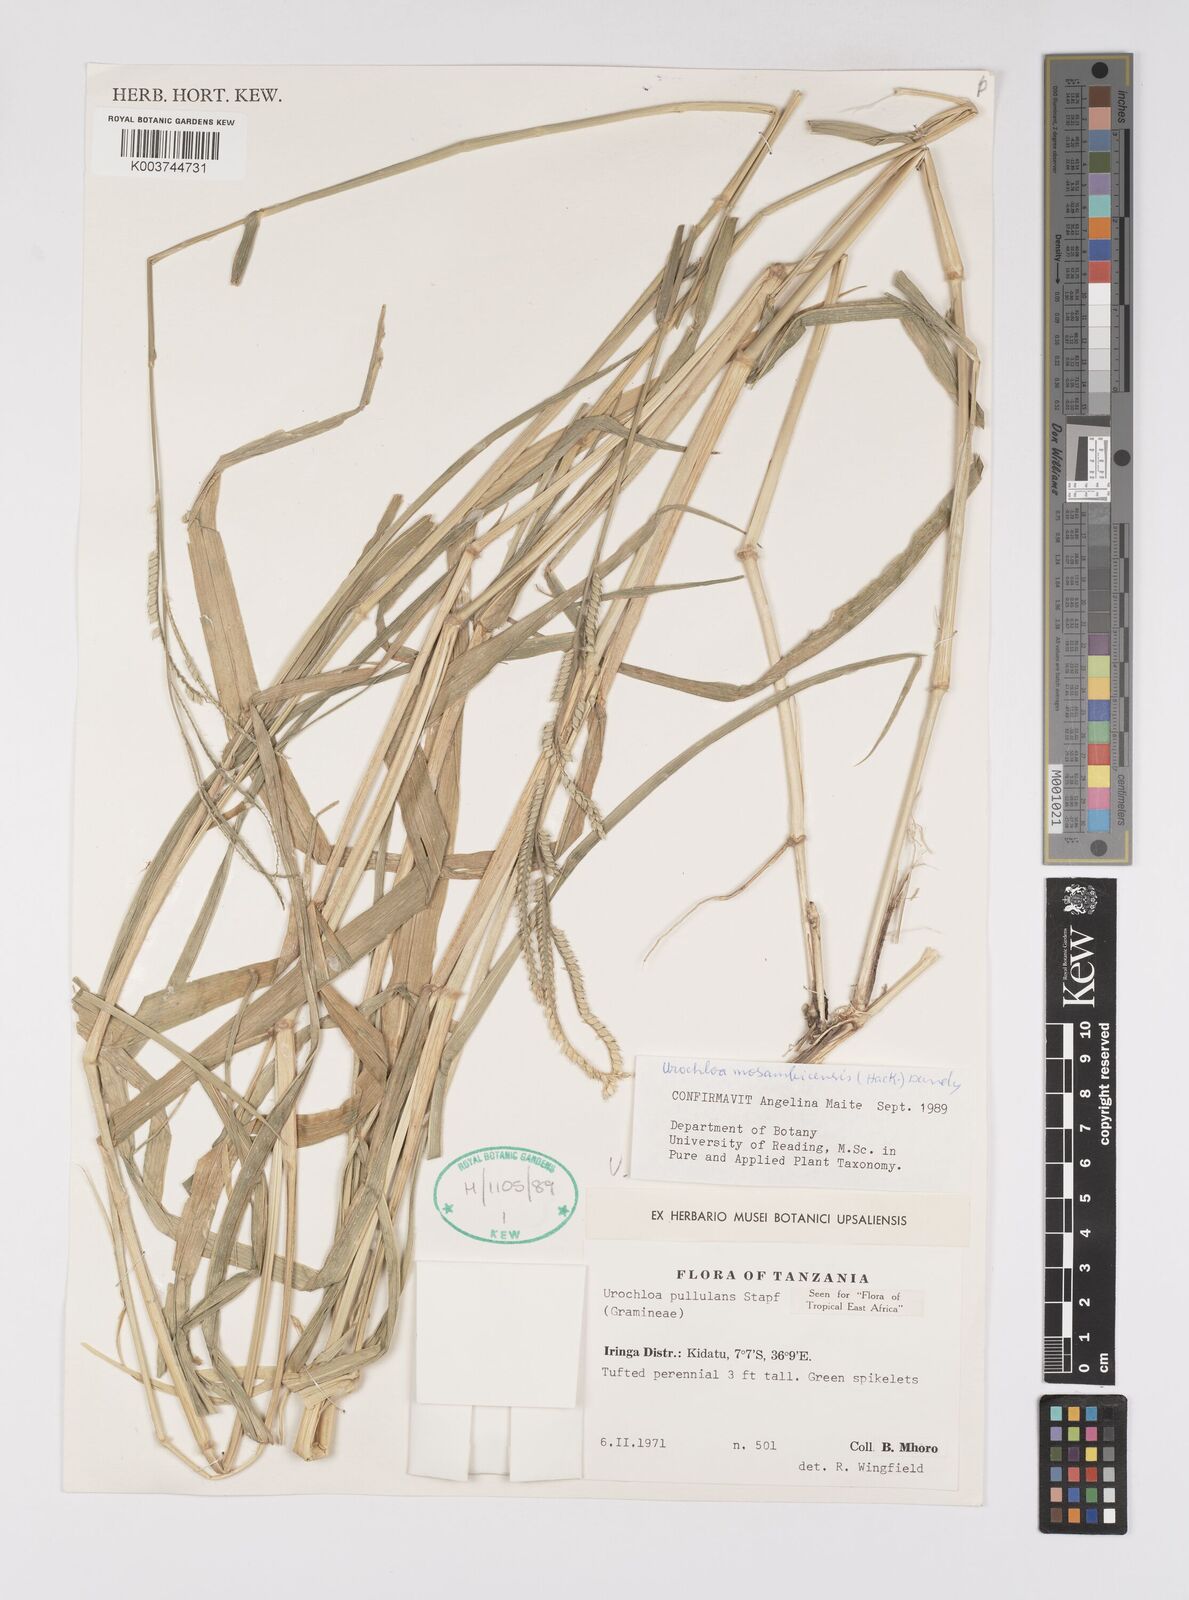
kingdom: Plantae
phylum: Tracheophyta
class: Liliopsida
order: Poales
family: Poaceae
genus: Urochloa
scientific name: Urochloa trichopus
